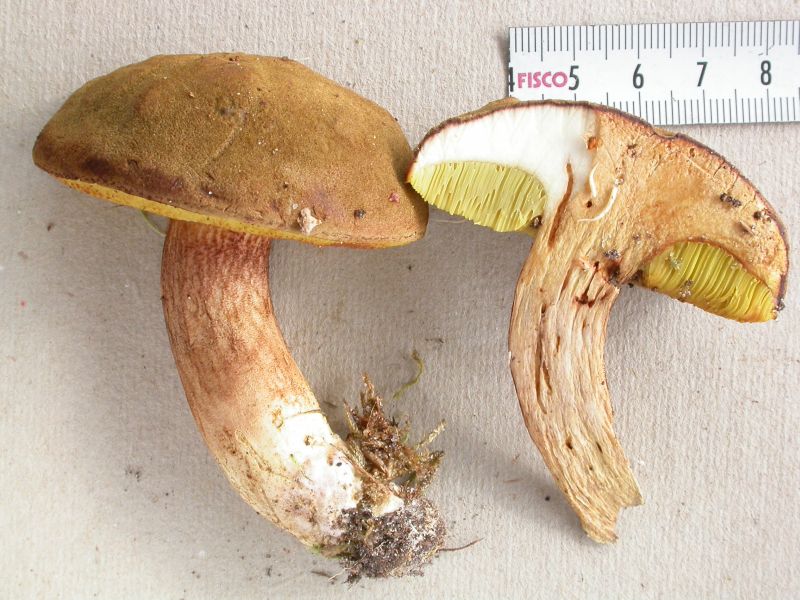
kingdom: Fungi
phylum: Basidiomycota
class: Agaricomycetes
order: Boletales
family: Boletaceae
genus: Xerocomus
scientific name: Xerocomus subtomentosus
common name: filtet rørhat
